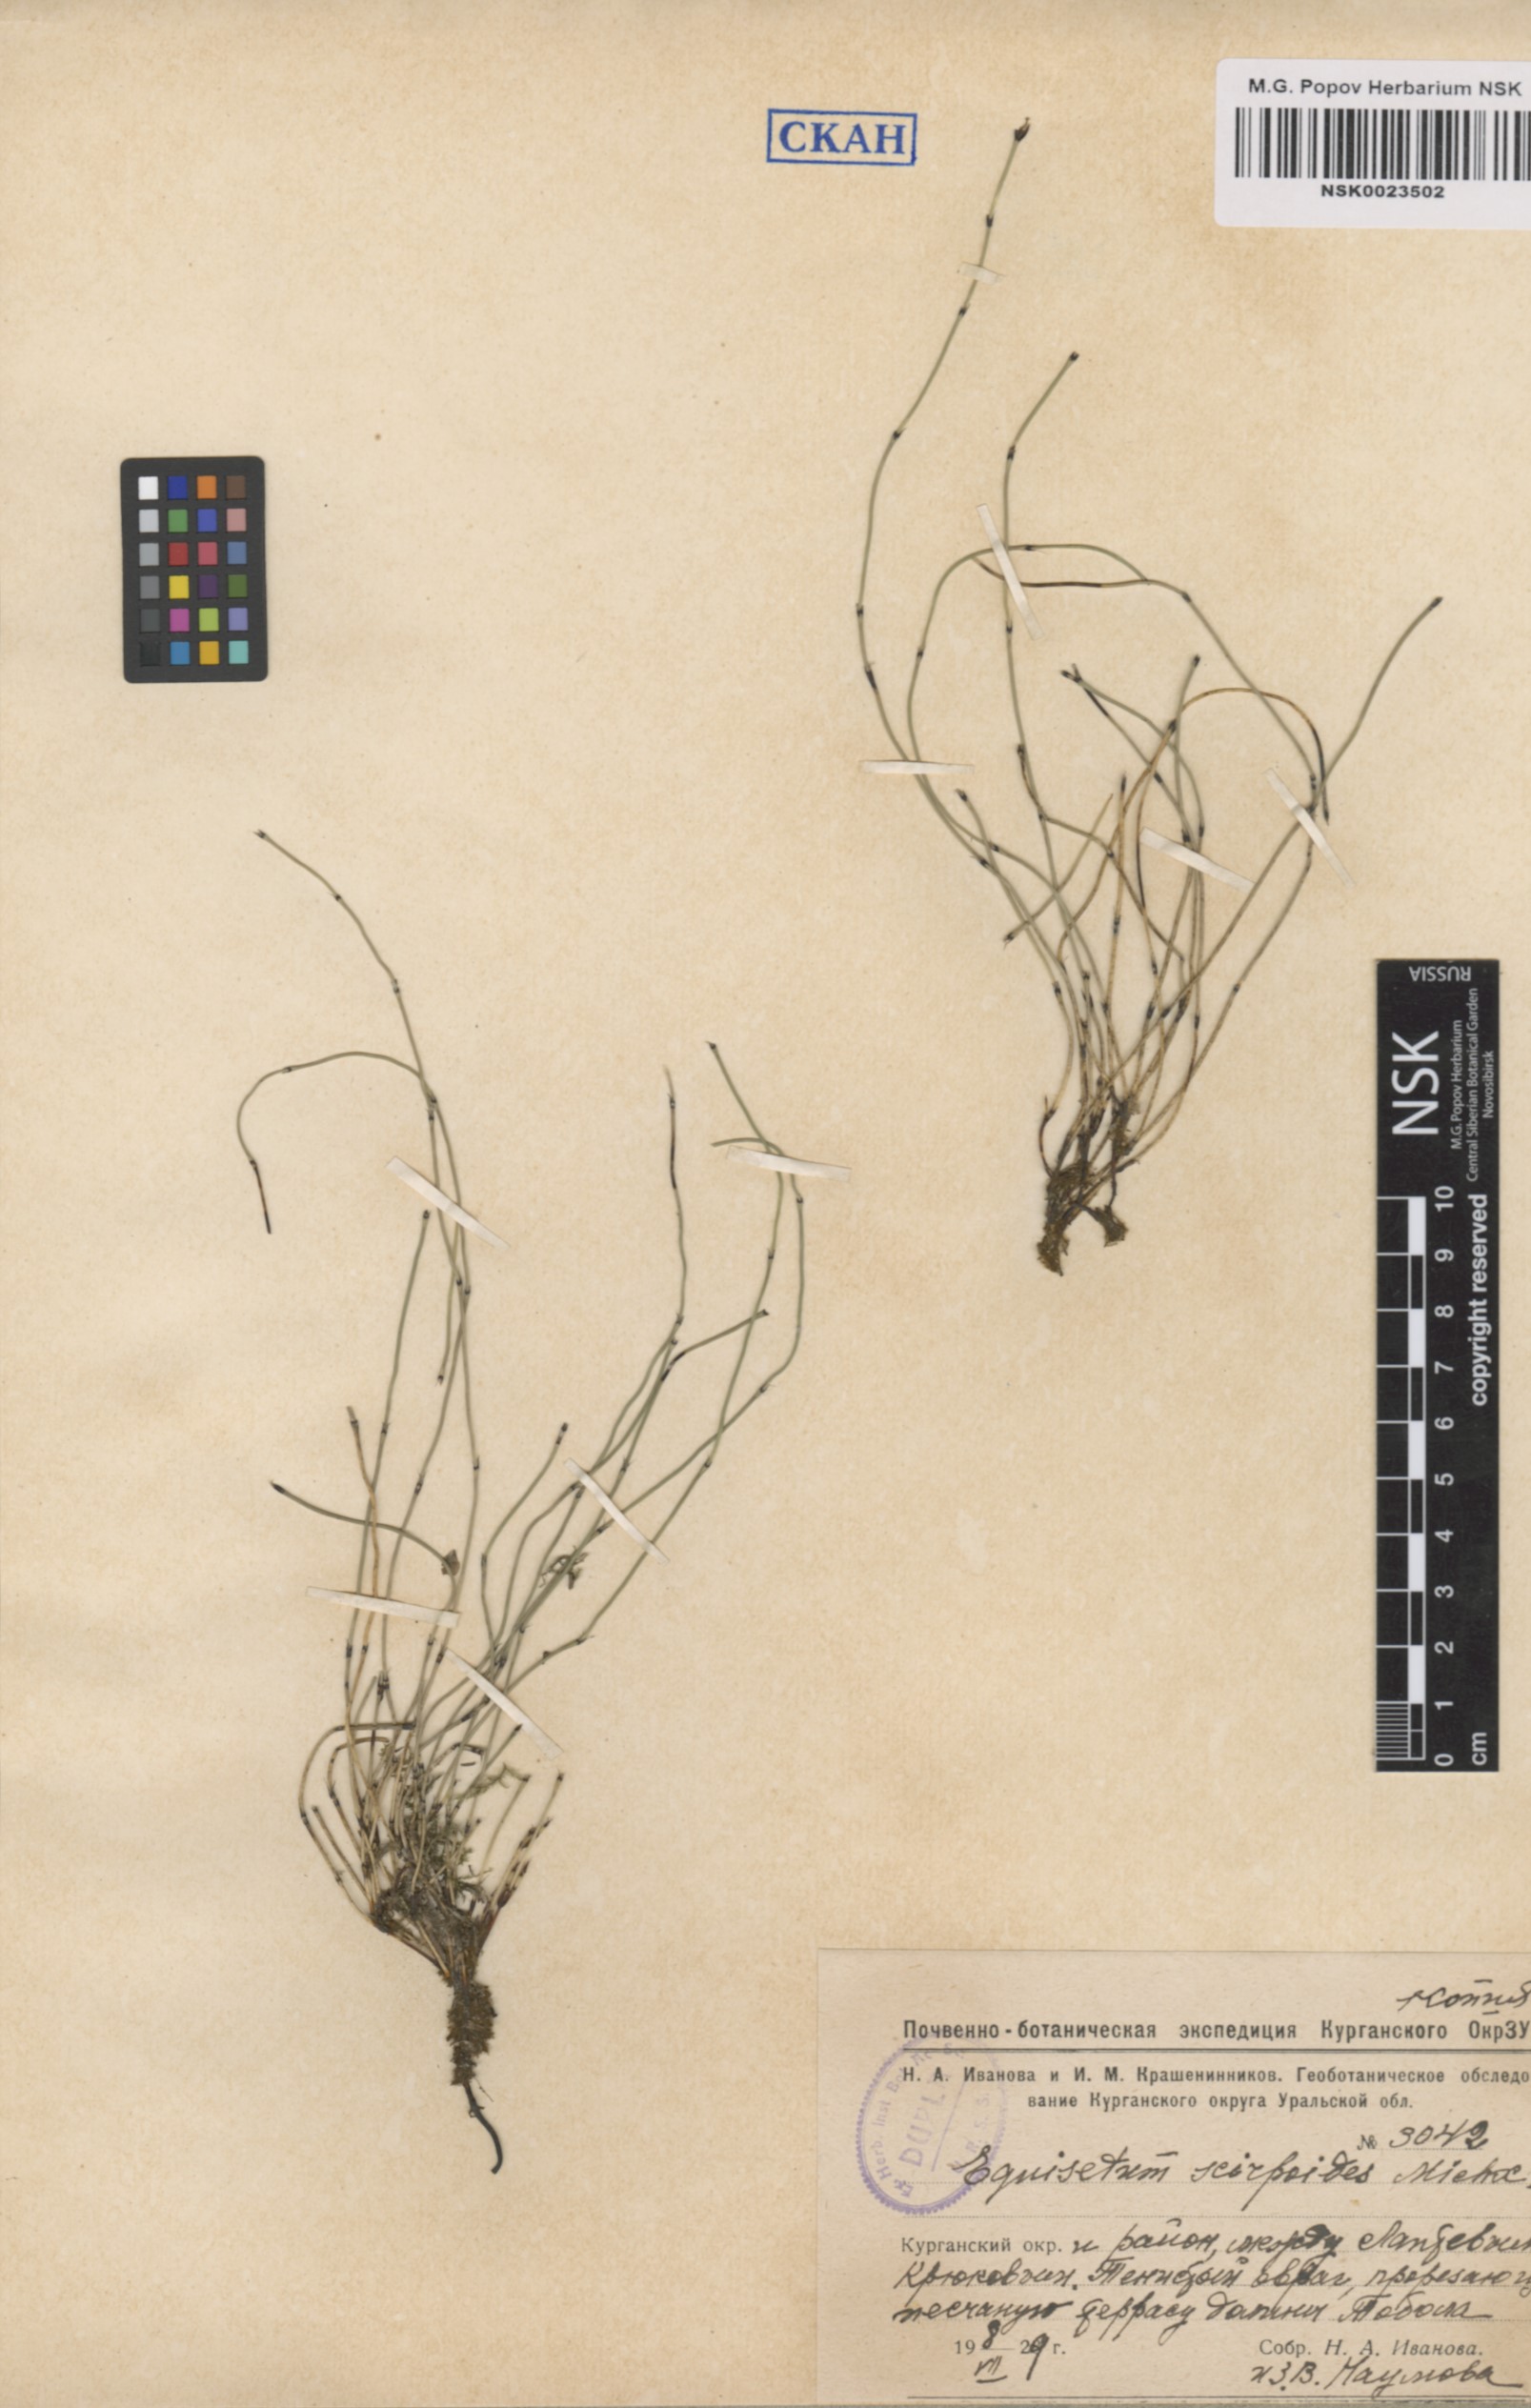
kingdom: Plantae
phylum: Tracheophyta
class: Polypodiopsida
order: Equisetales
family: Equisetaceae
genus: Equisetum
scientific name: Equisetum scirpoides
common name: Delicate horsetail
